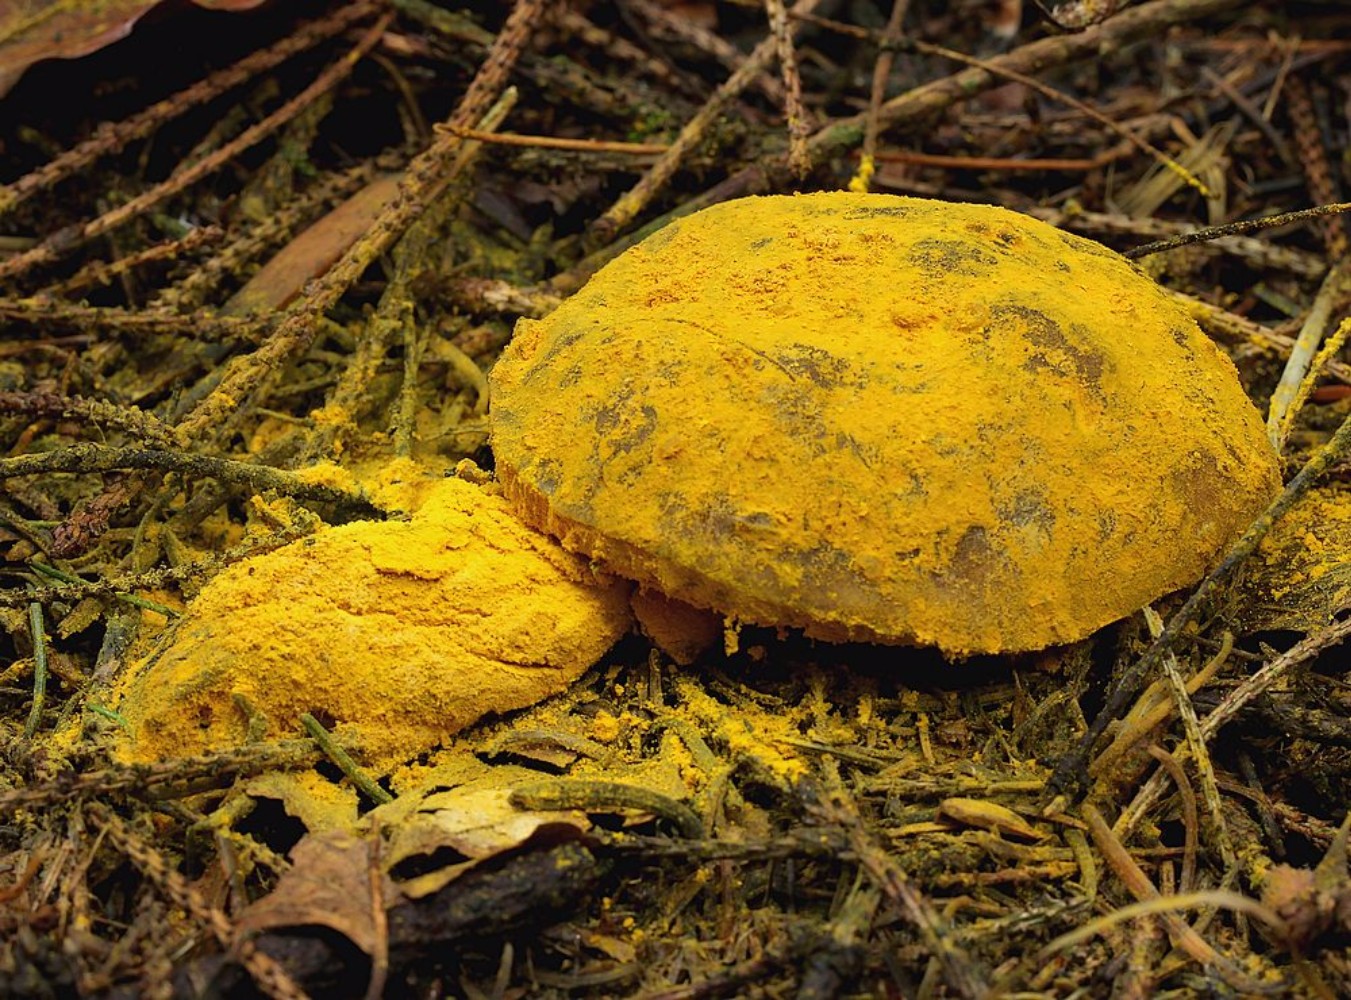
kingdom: Fungi
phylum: Ascomycota
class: Sordariomycetes
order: Hypocreales
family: Hypocreaceae
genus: Hypomyces
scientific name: Hypomyces
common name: snylteskorpe
